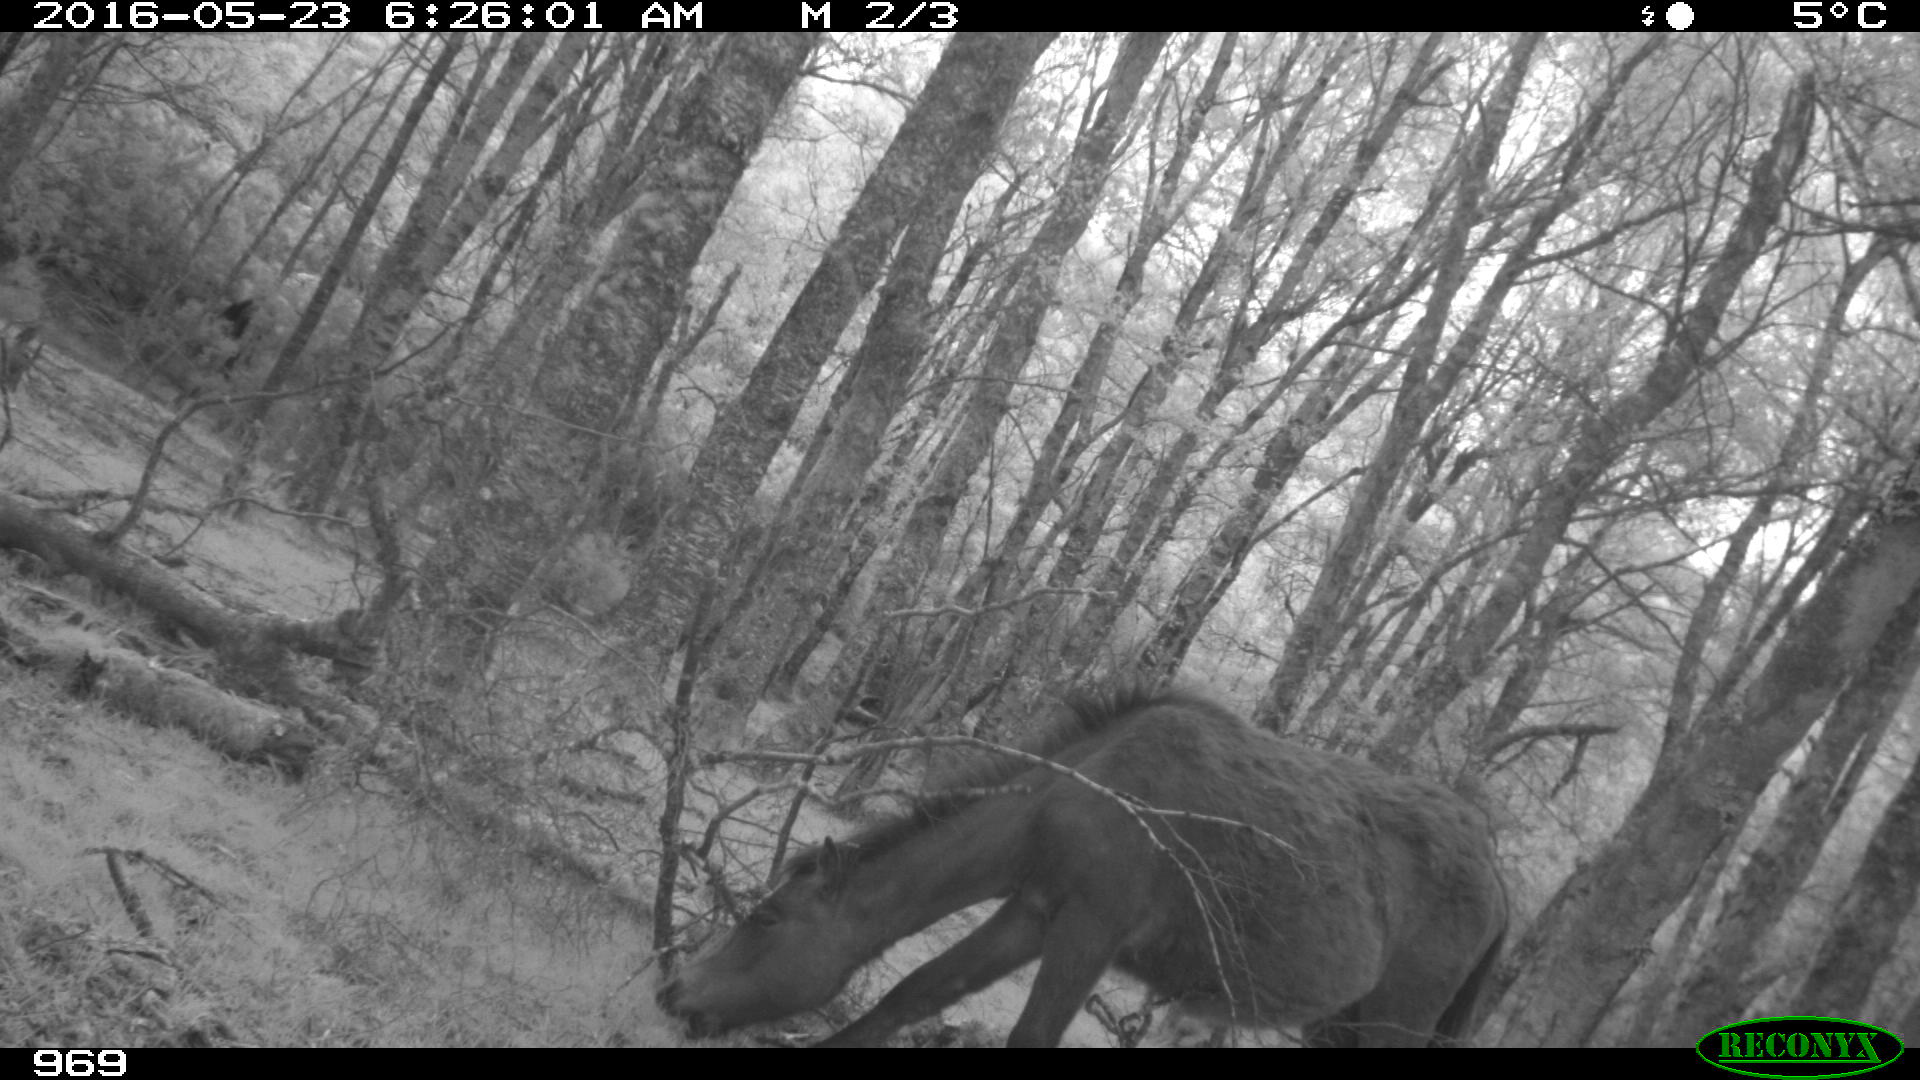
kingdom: Animalia
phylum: Chordata
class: Mammalia
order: Perissodactyla
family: Equidae
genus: Equus
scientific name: Equus caballus
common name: Horse
